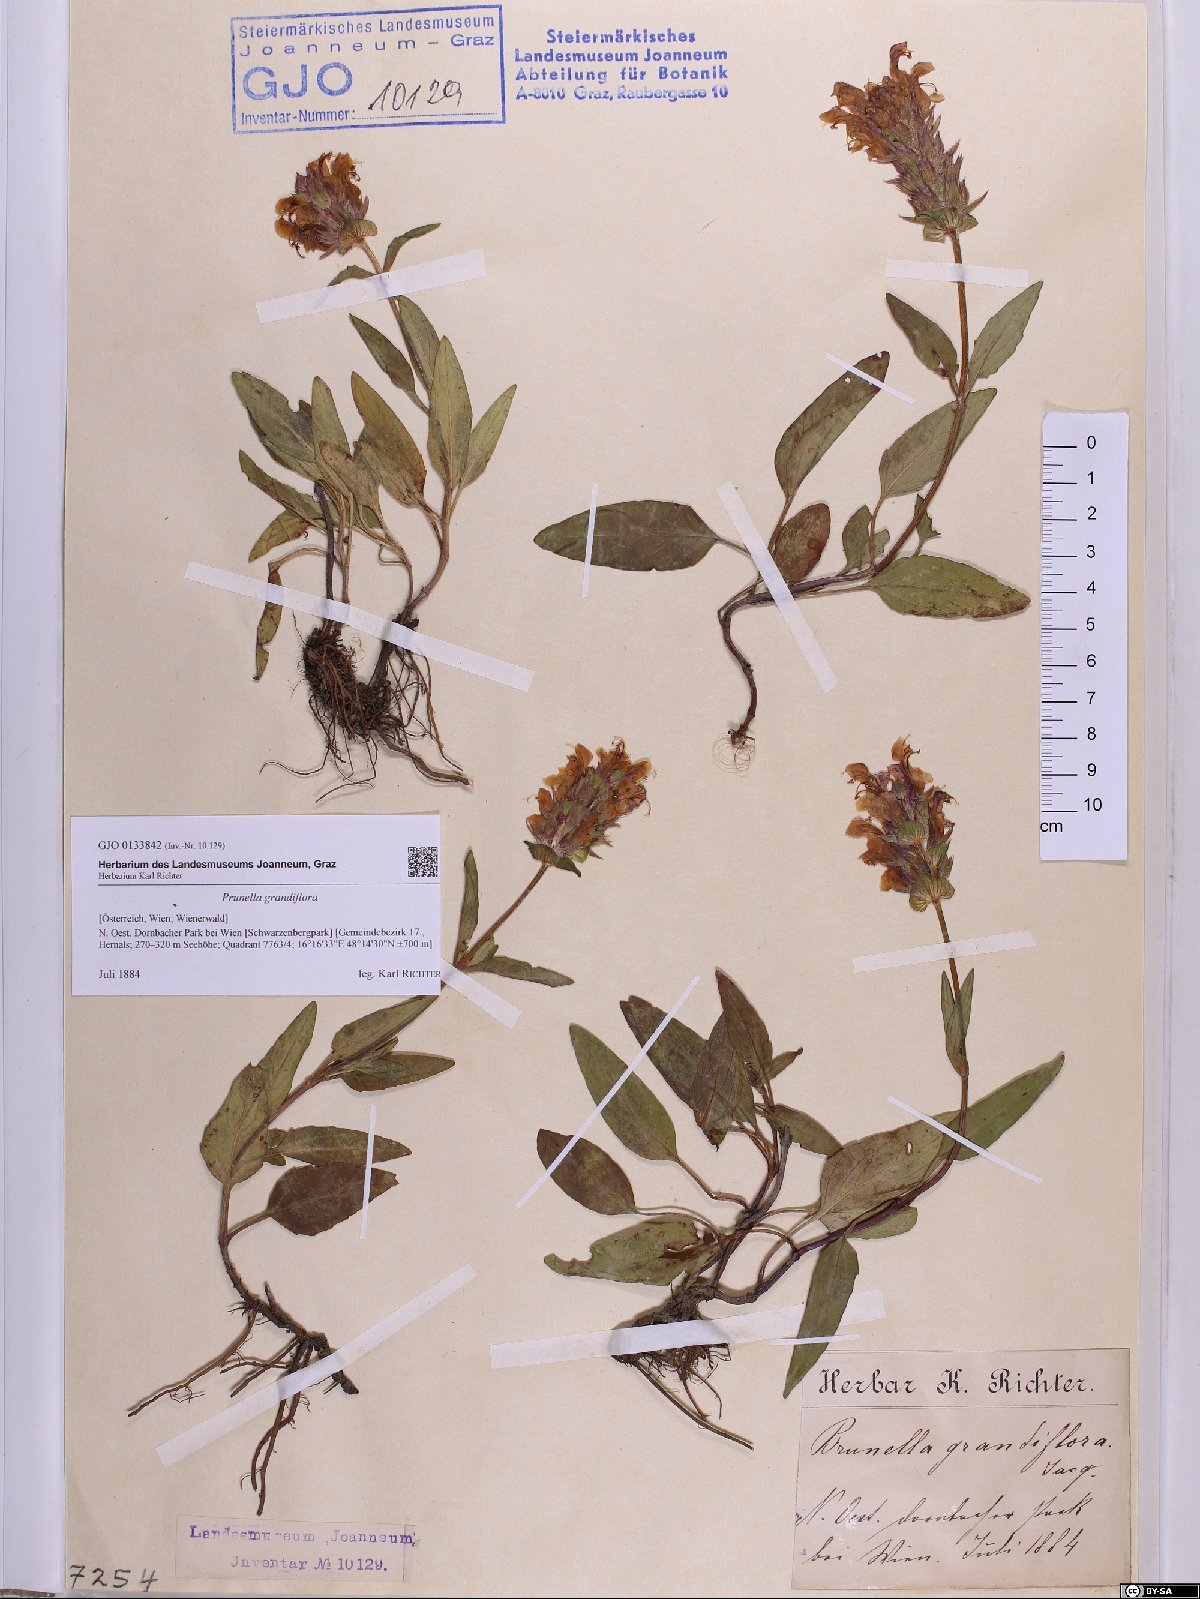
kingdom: Plantae
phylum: Tracheophyta
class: Magnoliopsida
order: Lamiales
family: Lamiaceae
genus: Prunella
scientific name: Prunella grandiflora
